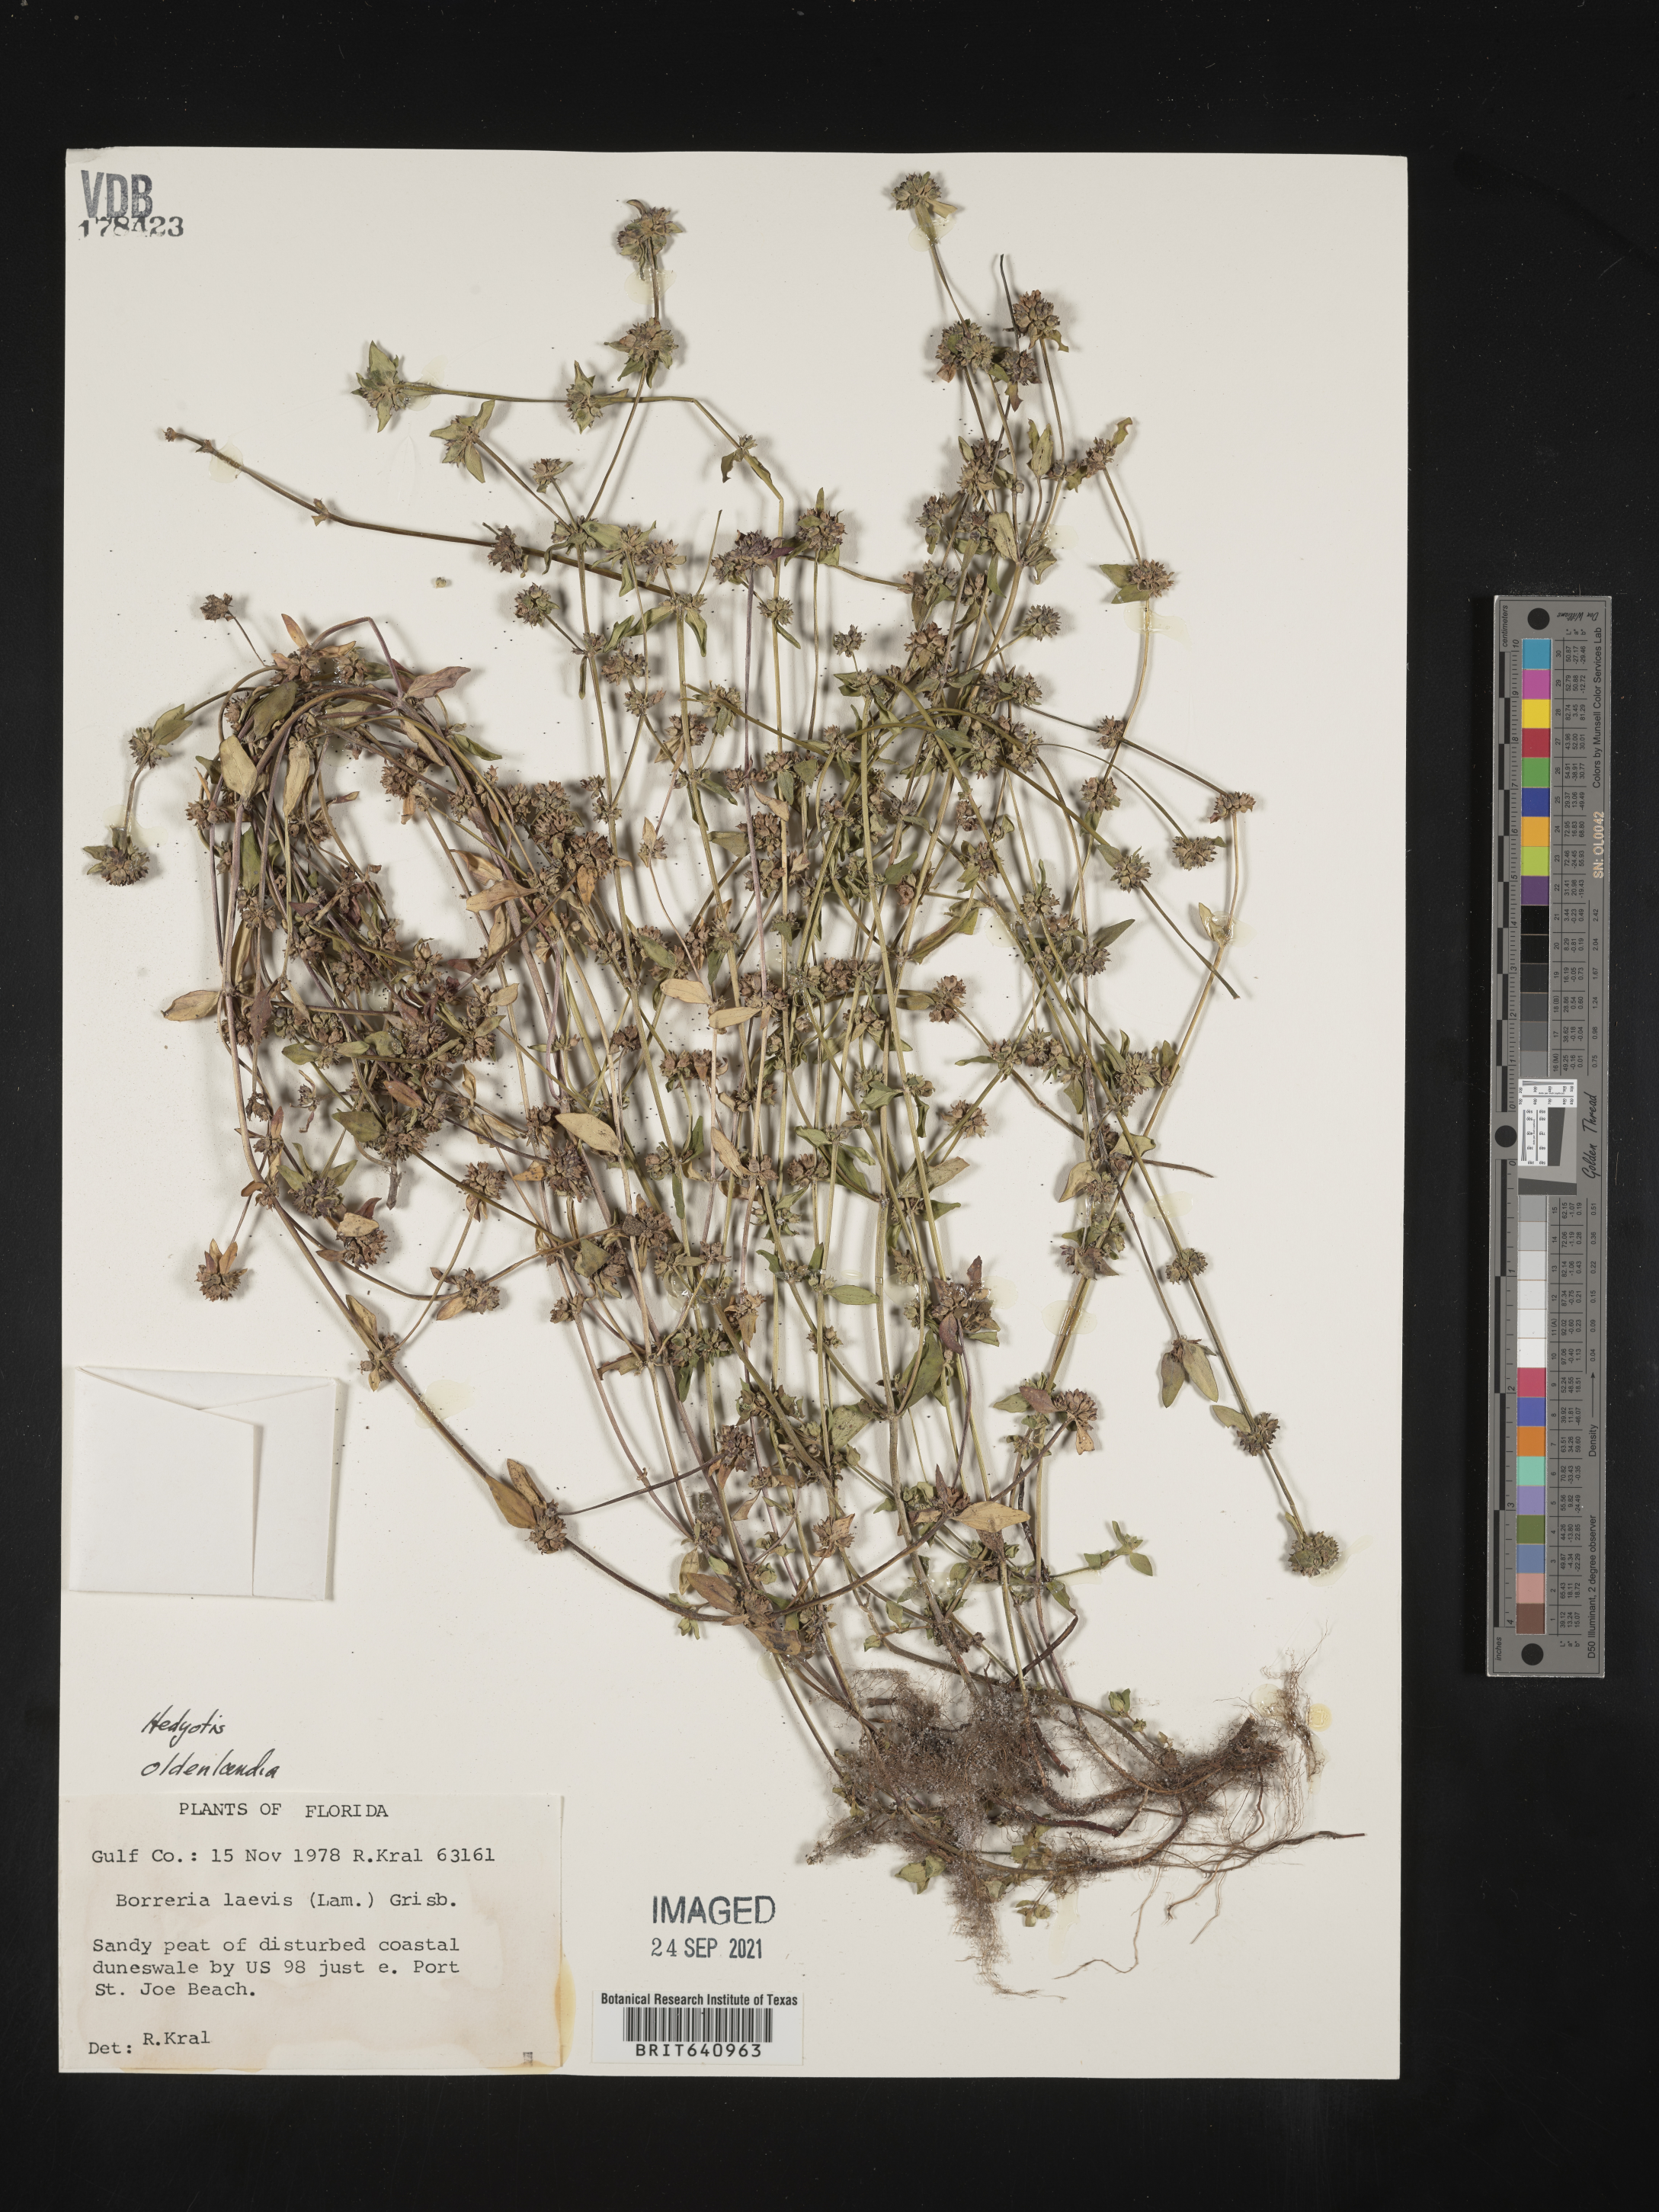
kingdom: Plantae
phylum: Tracheophyta
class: Magnoliopsida
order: Gentianales
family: Rubiaceae
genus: Hedyotis
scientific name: Hedyotis
